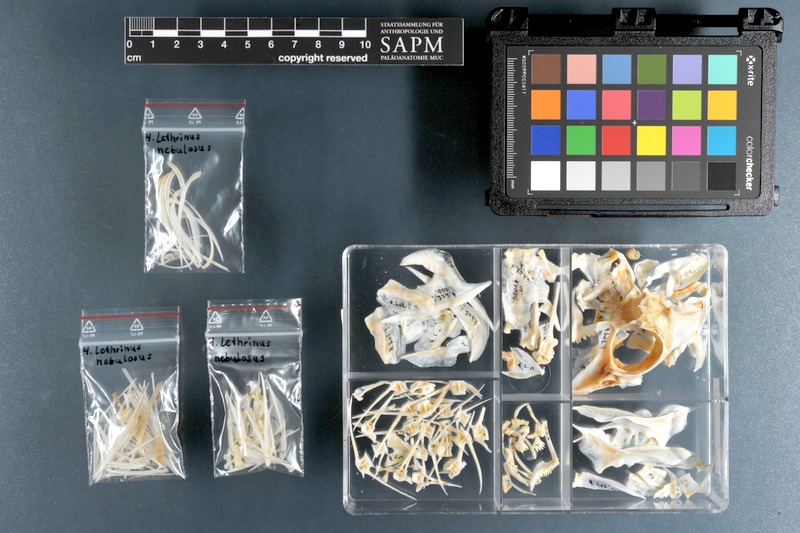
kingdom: Animalia
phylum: Chordata
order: Perciformes
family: Lethrinidae
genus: Lethrinus
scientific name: Lethrinus nebulosus
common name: Spangled emperor
